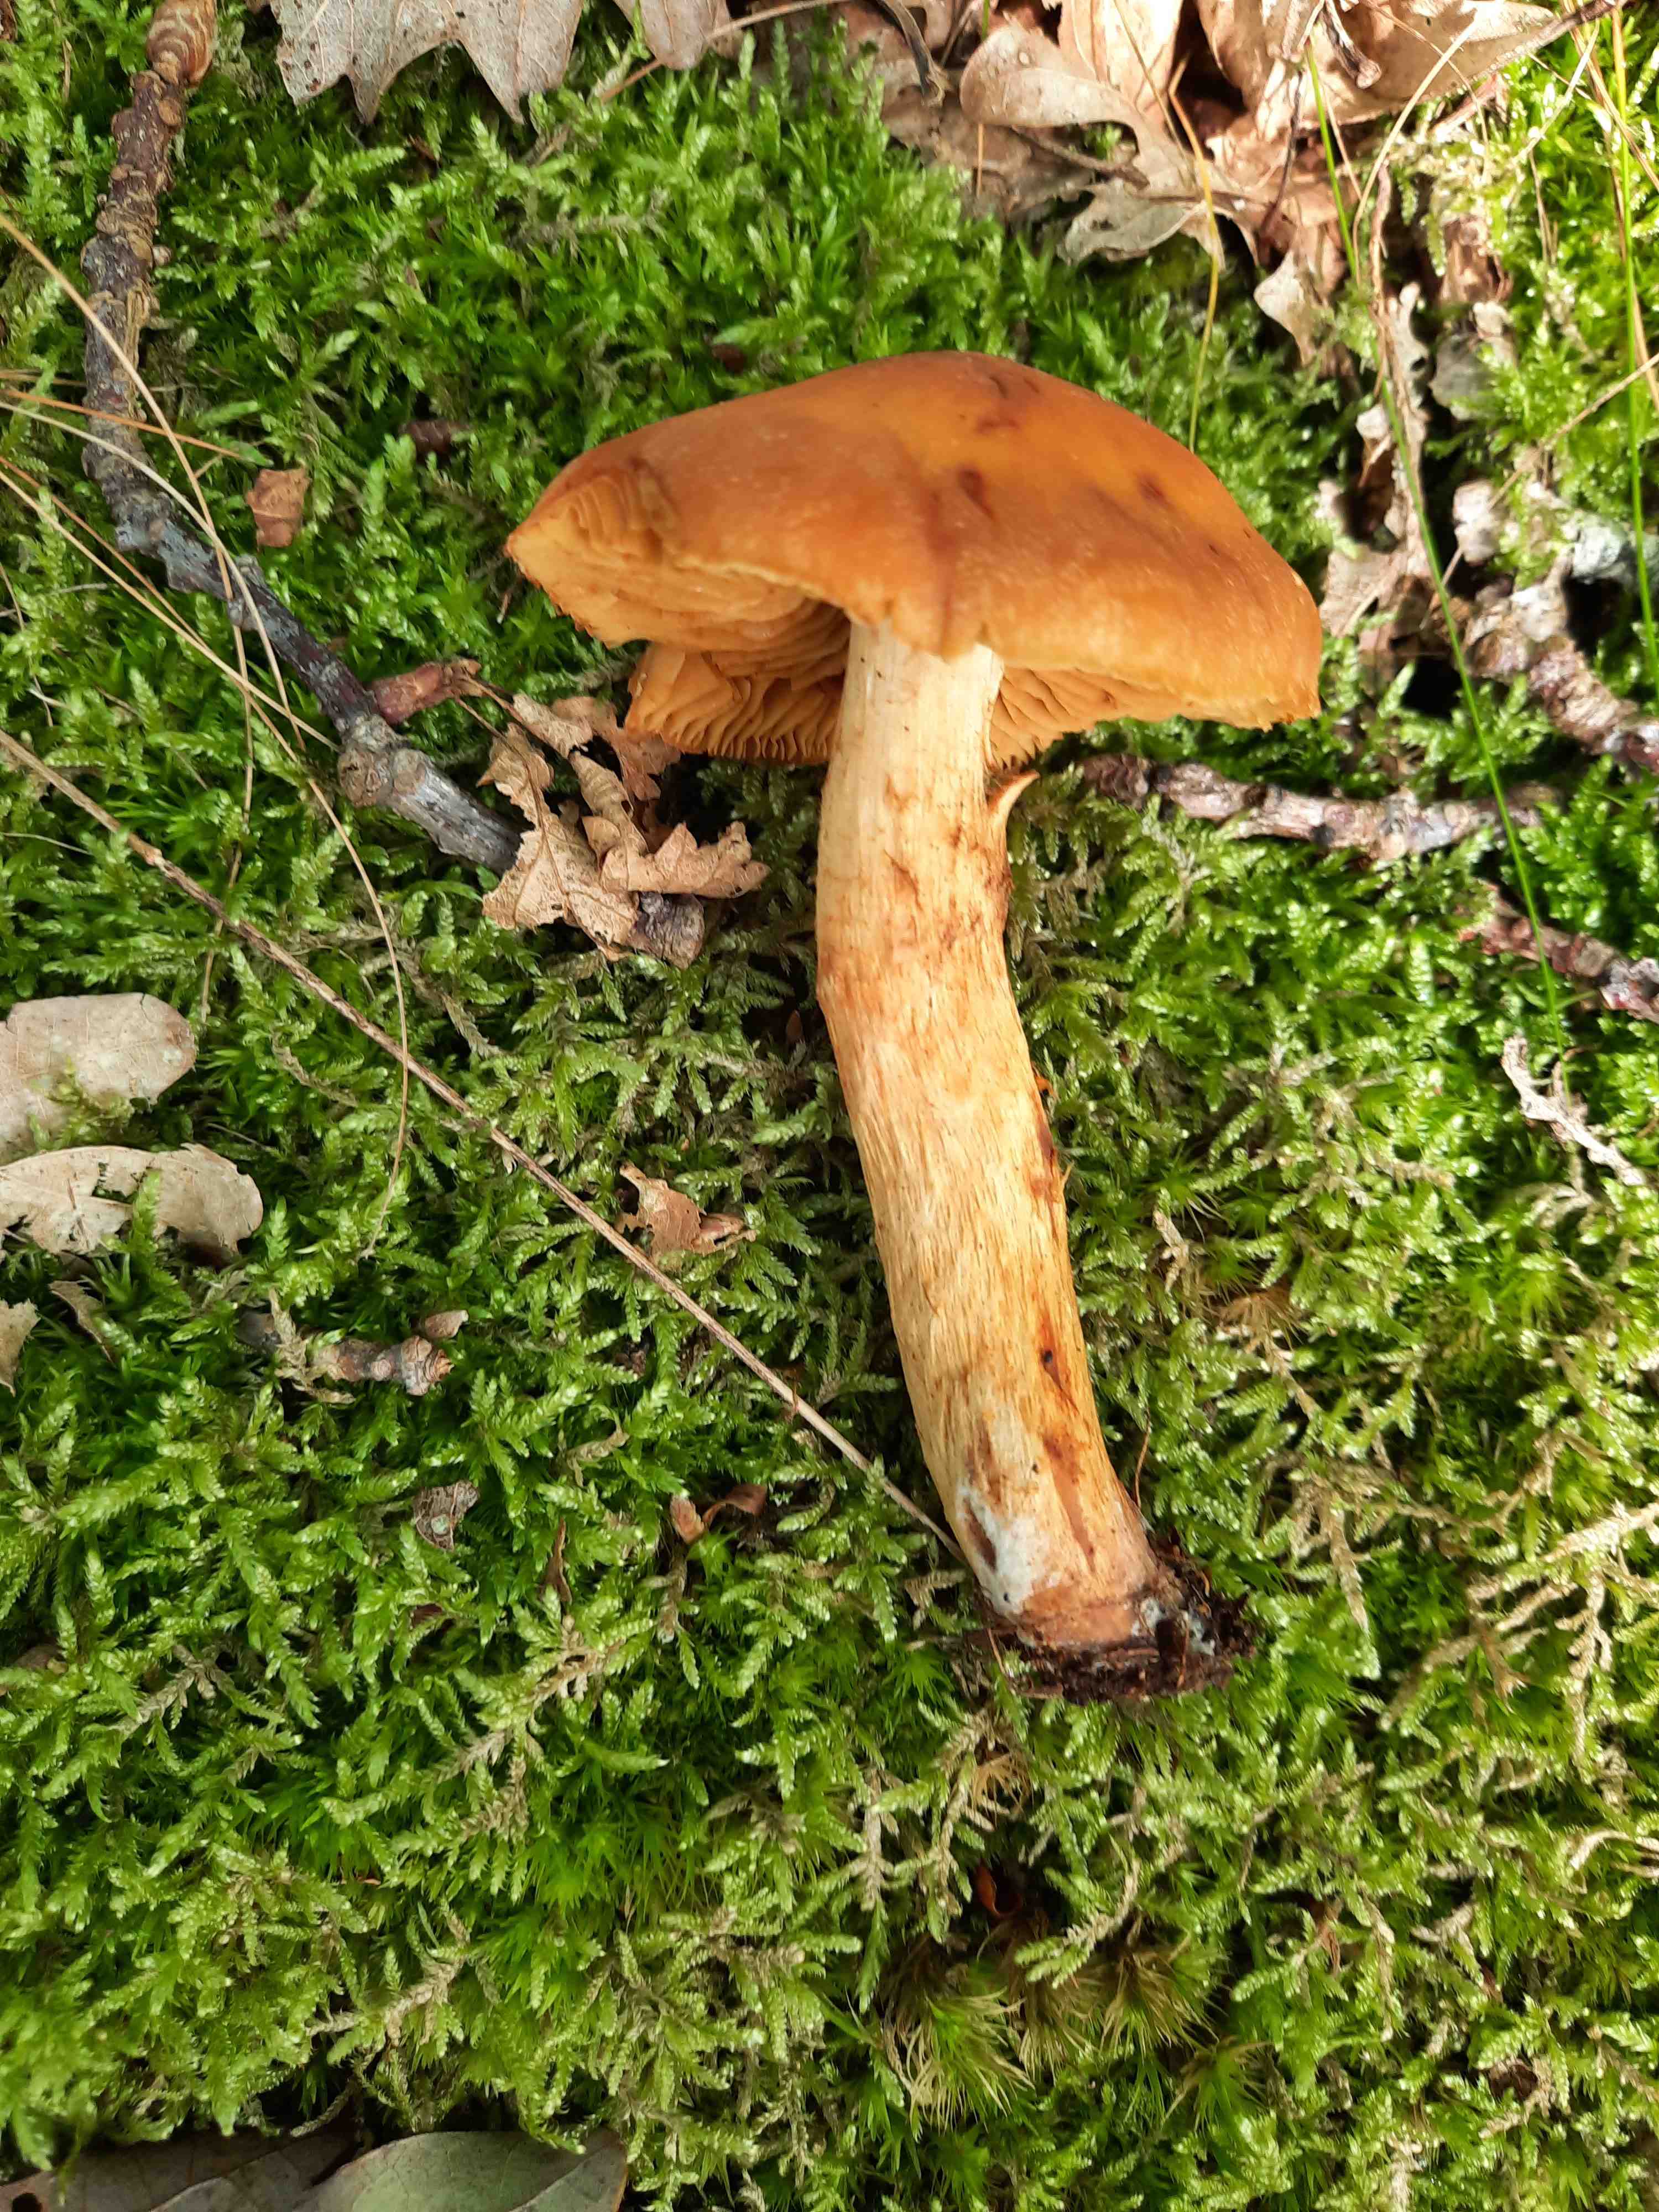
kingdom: Fungi
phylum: Basidiomycota
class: Agaricomycetes
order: Agaricales
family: Cortinariaceae
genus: Aureonarius
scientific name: Aureonarius limonius
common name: orangegul slørhat
